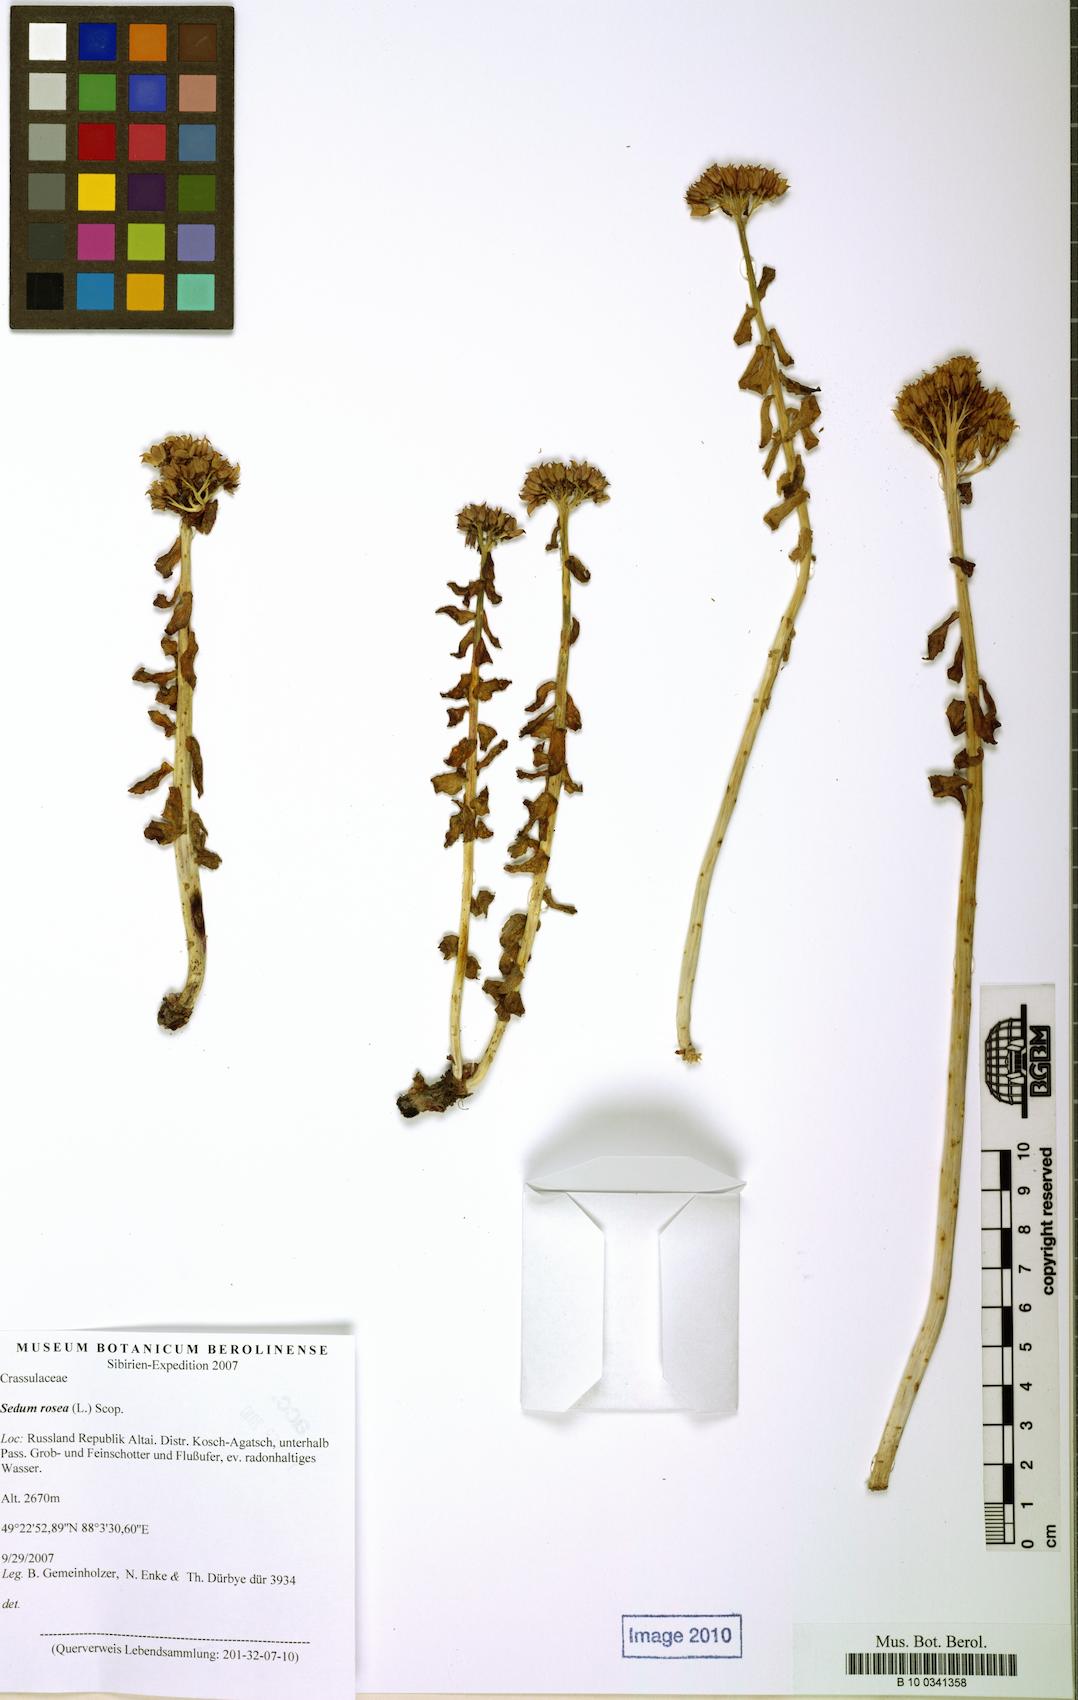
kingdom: Plantae
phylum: Tracheophyta
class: Magnoliopsida
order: Saxifragales
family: Crassulaceae
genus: Rhodiola
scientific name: Rhodiola rosea
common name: Roseroot
